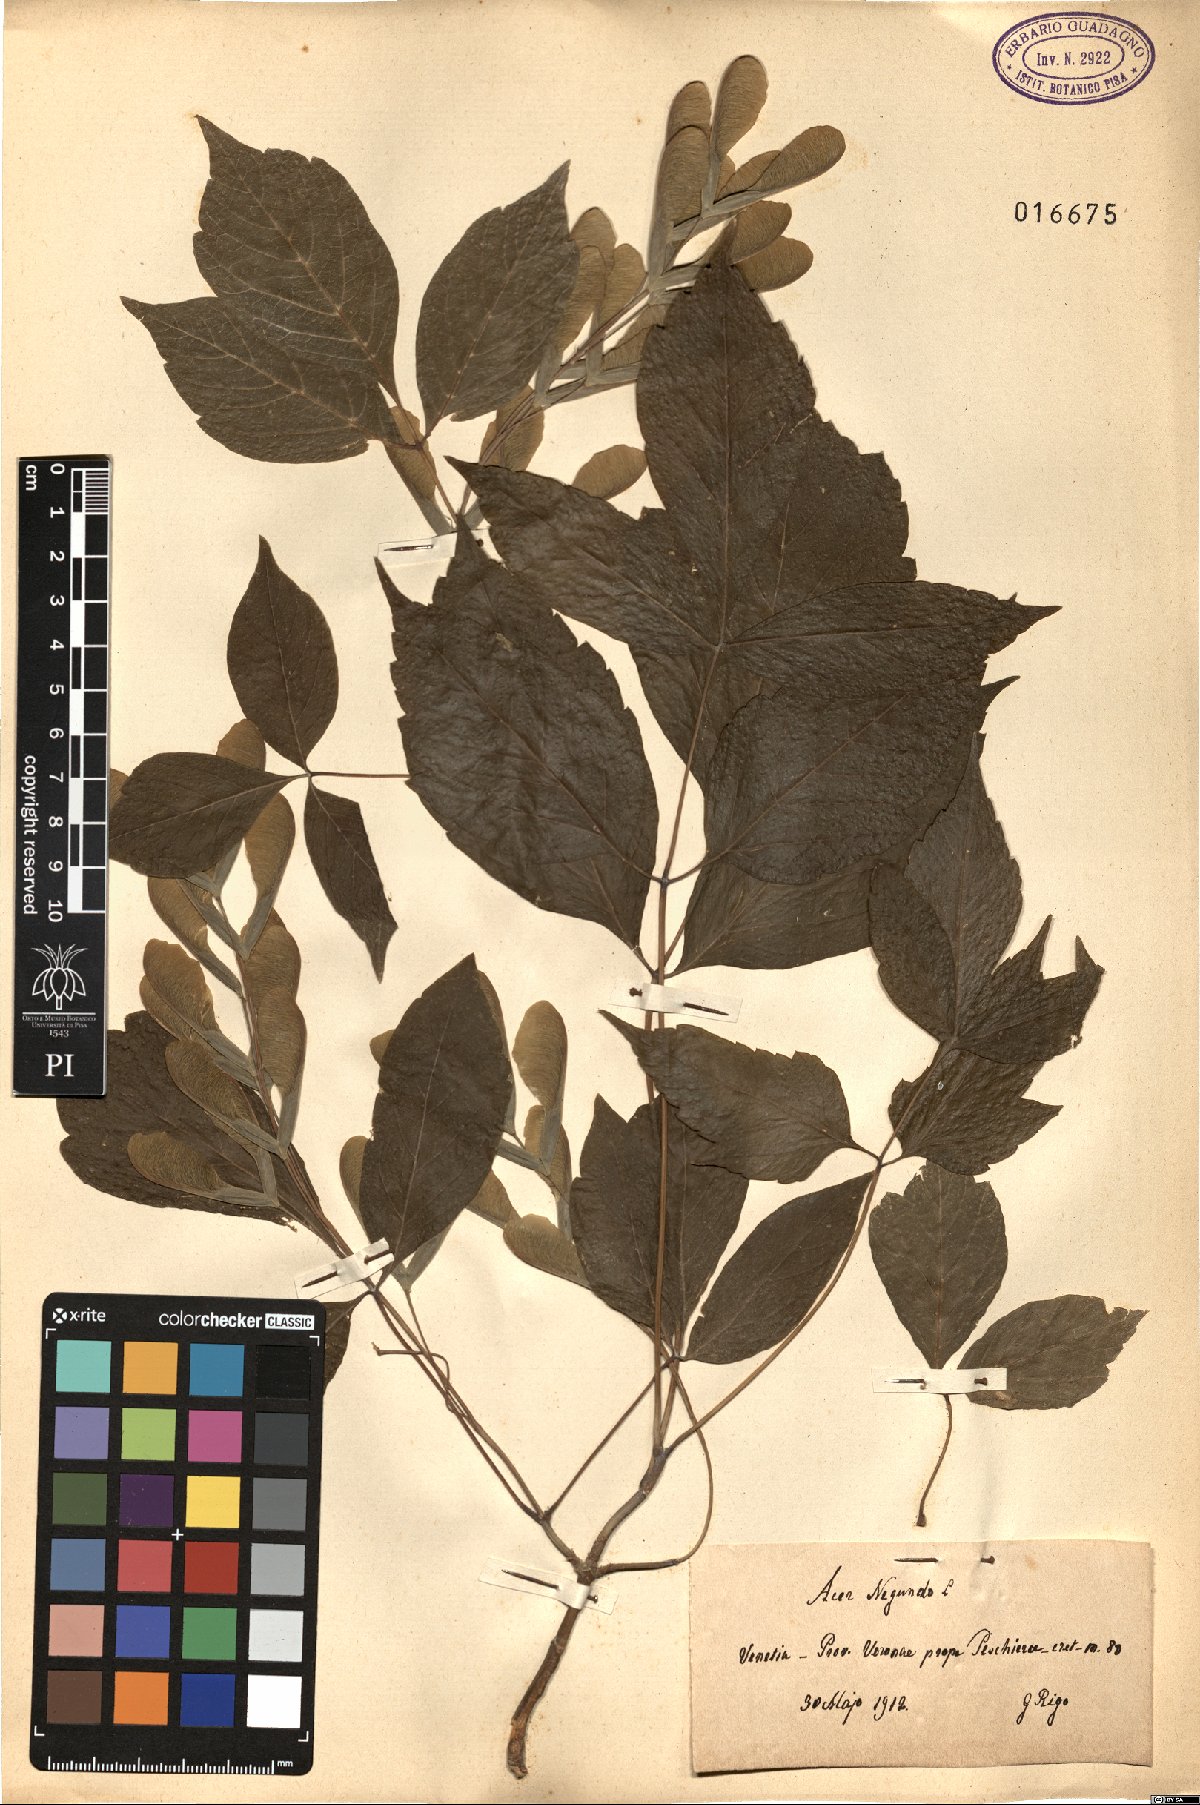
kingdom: Plantae
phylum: Tracheophyta
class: Magnoliopsida
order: Sapindales
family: Sapindaceae
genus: Acer
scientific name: Acer negundo
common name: Ashleaf maple
